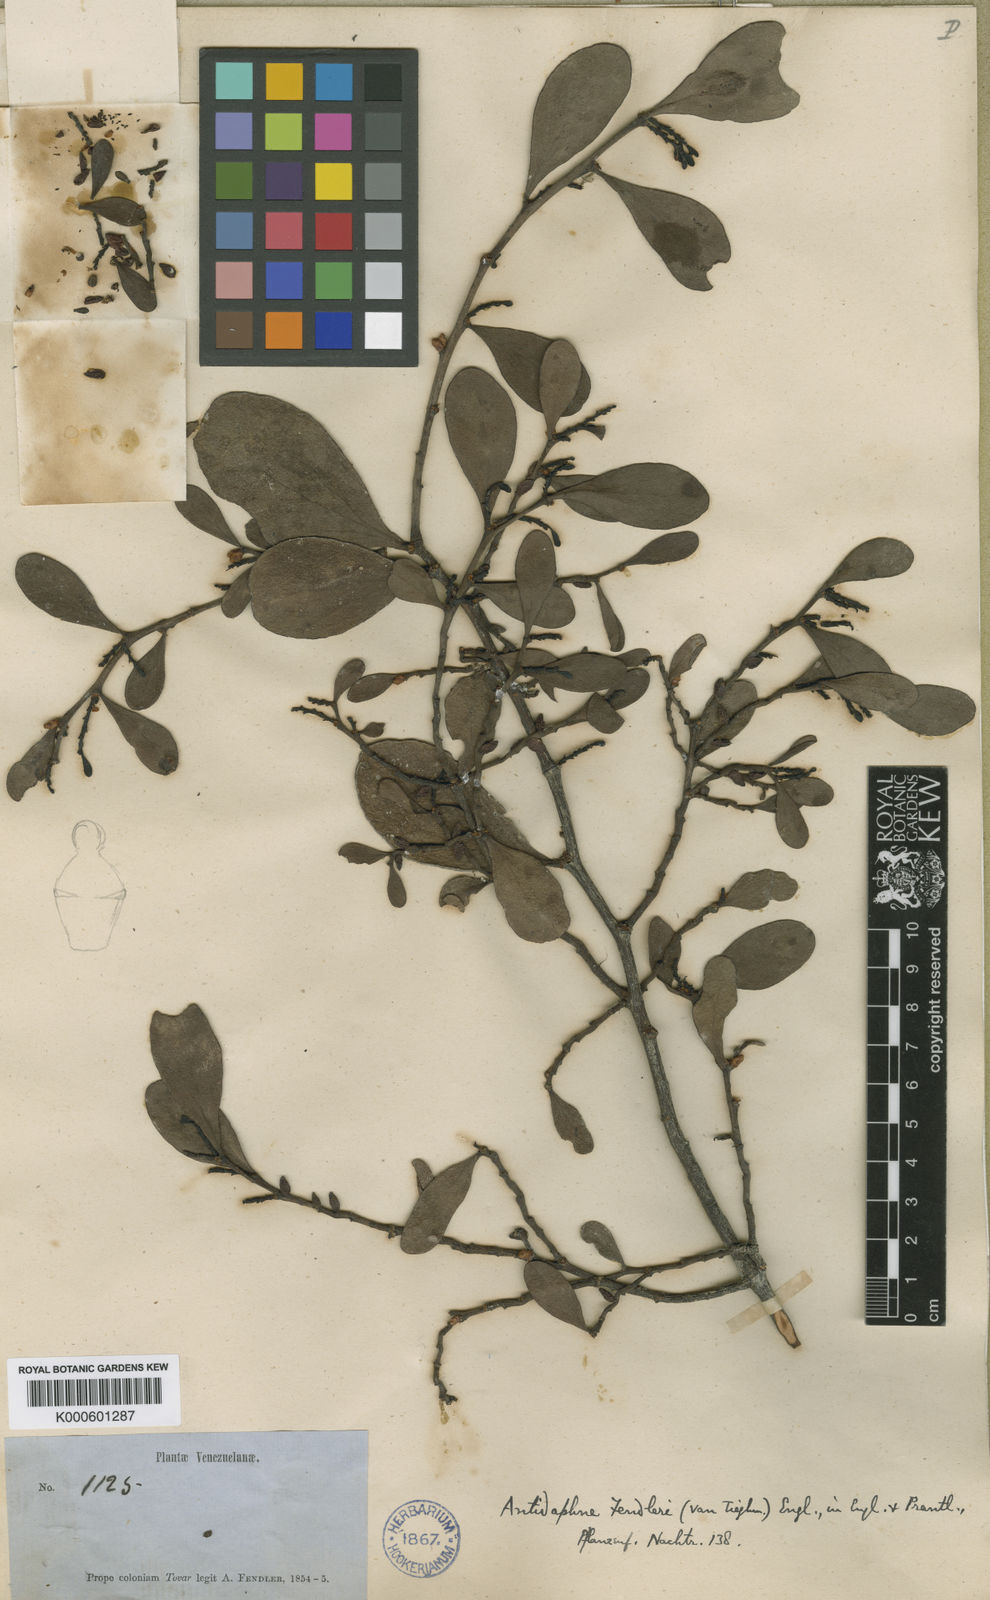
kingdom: Plantae
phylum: Tracheophyta
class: Magnoliopsida
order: Santalales
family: Santalaceae
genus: Antidaphne
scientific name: Antidaphne viscoidea
